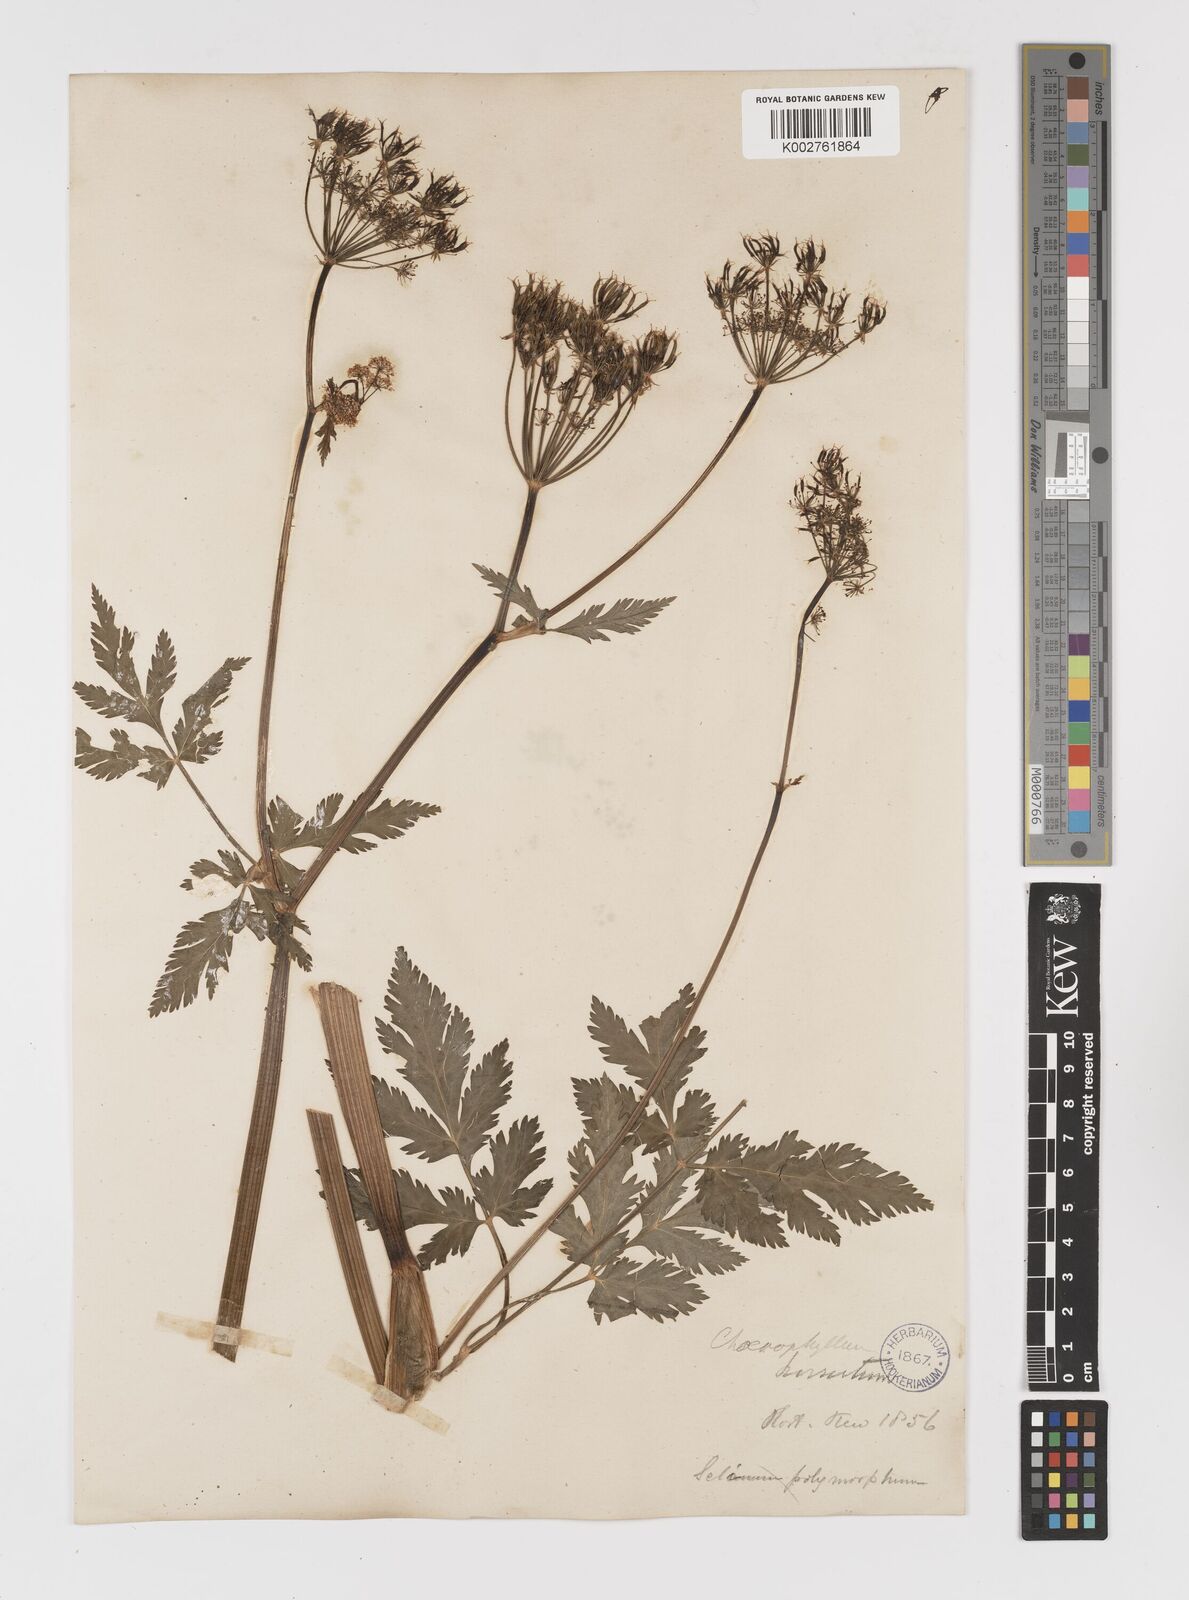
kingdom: Plantae
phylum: Tracheophyta
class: Magnoliopsida
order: Apiales
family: Apiaceae
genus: Chaerophyllum
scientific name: Chaerophyllum
